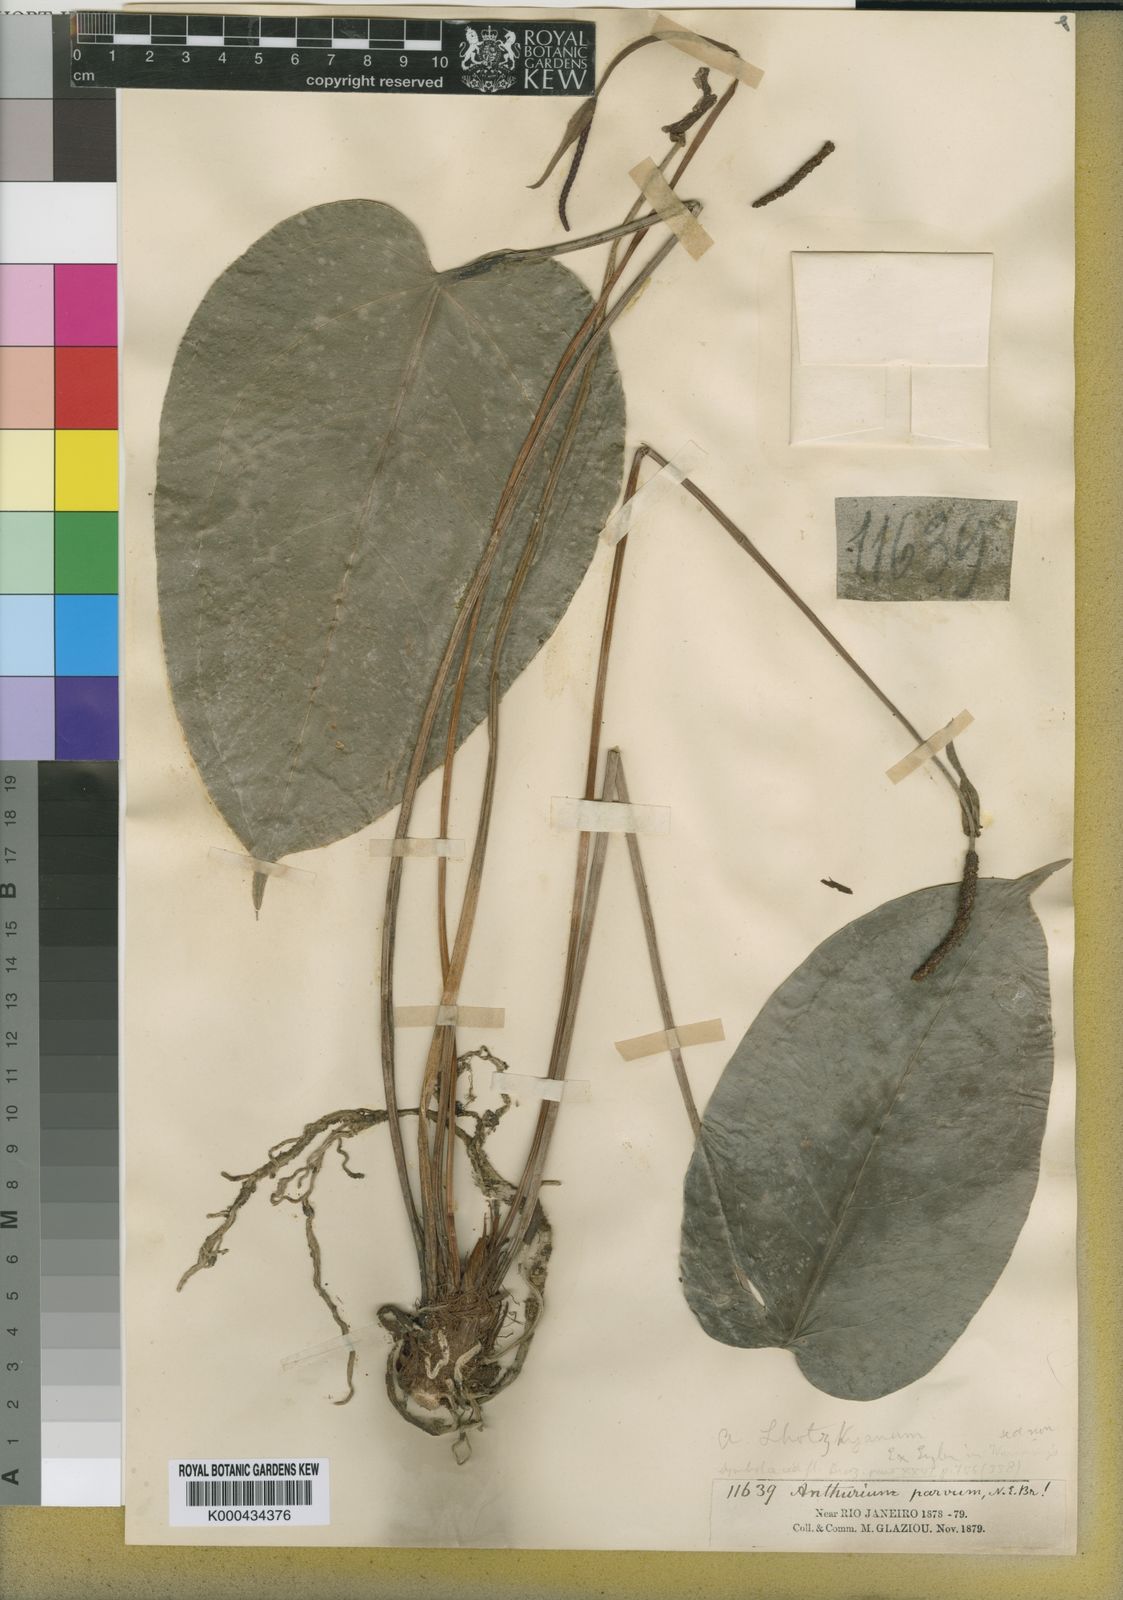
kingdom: Plantae
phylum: Tracheophyta
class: Liliopsida
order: Alismatales
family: Araceae
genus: Anthurium
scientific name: Anthurium augustinum
